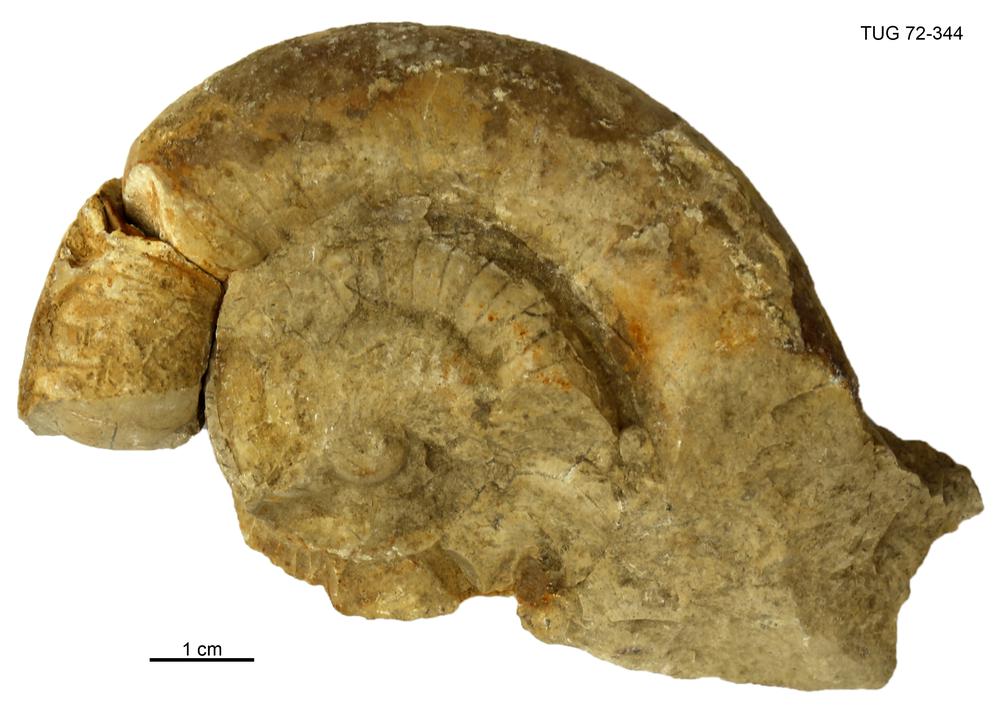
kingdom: Animalia
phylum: Mollusca
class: Cephalopoda
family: Trocholitidae
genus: Schroederoceras
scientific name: Schroederoceras
